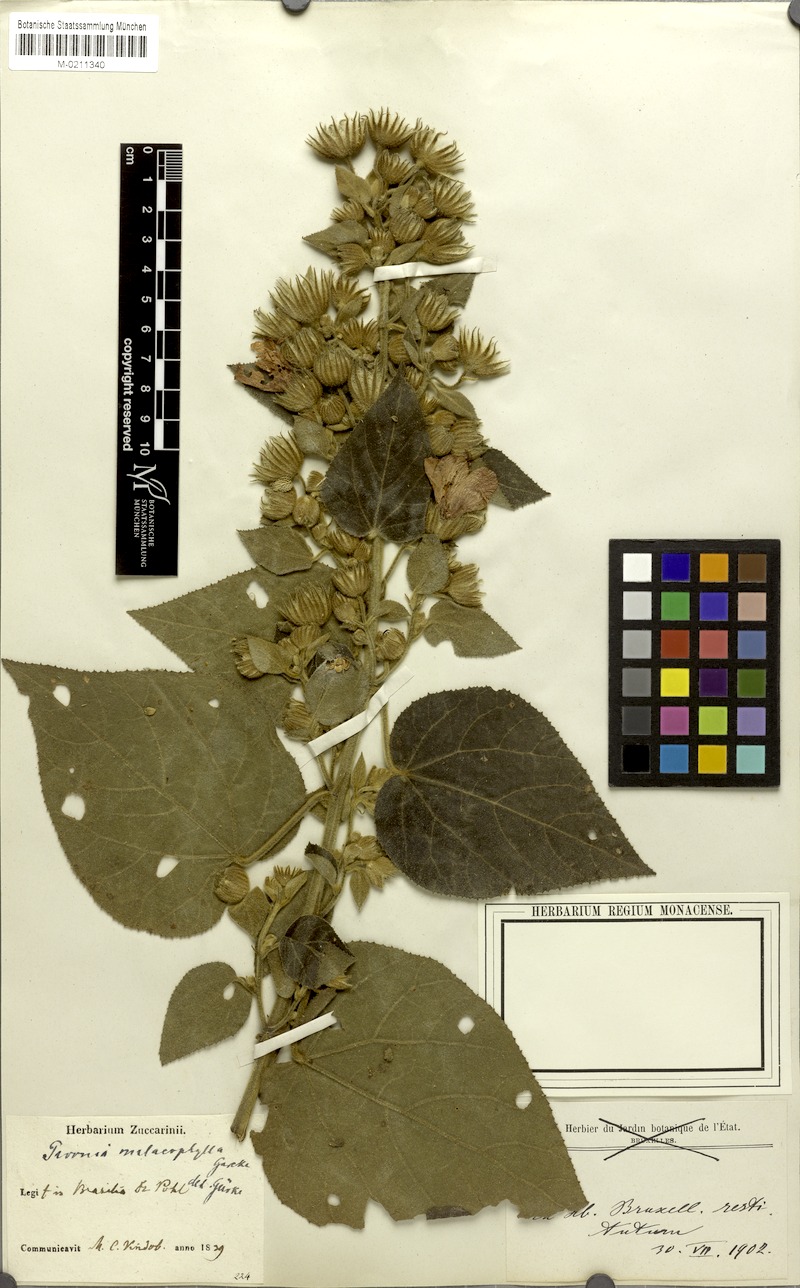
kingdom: Plantae
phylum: Tracheophyta
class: Magnoliopsida
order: Malvales
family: Malvaceae
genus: Pavonia
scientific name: Pavonia malacophylla
